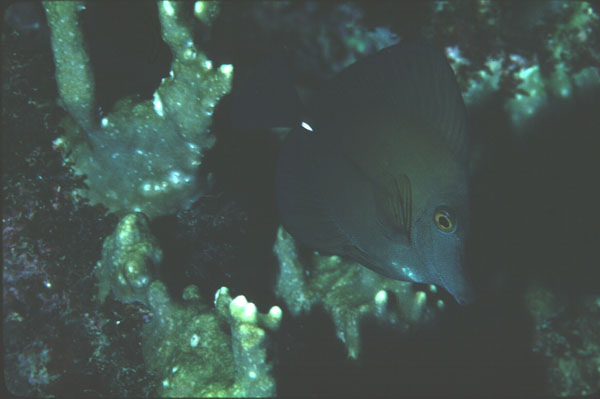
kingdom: Animalia
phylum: Chordata
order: Perciformes
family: Acanthuridae
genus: Zebrasoma
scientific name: Zebrasoma scopas
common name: Twotone tang
